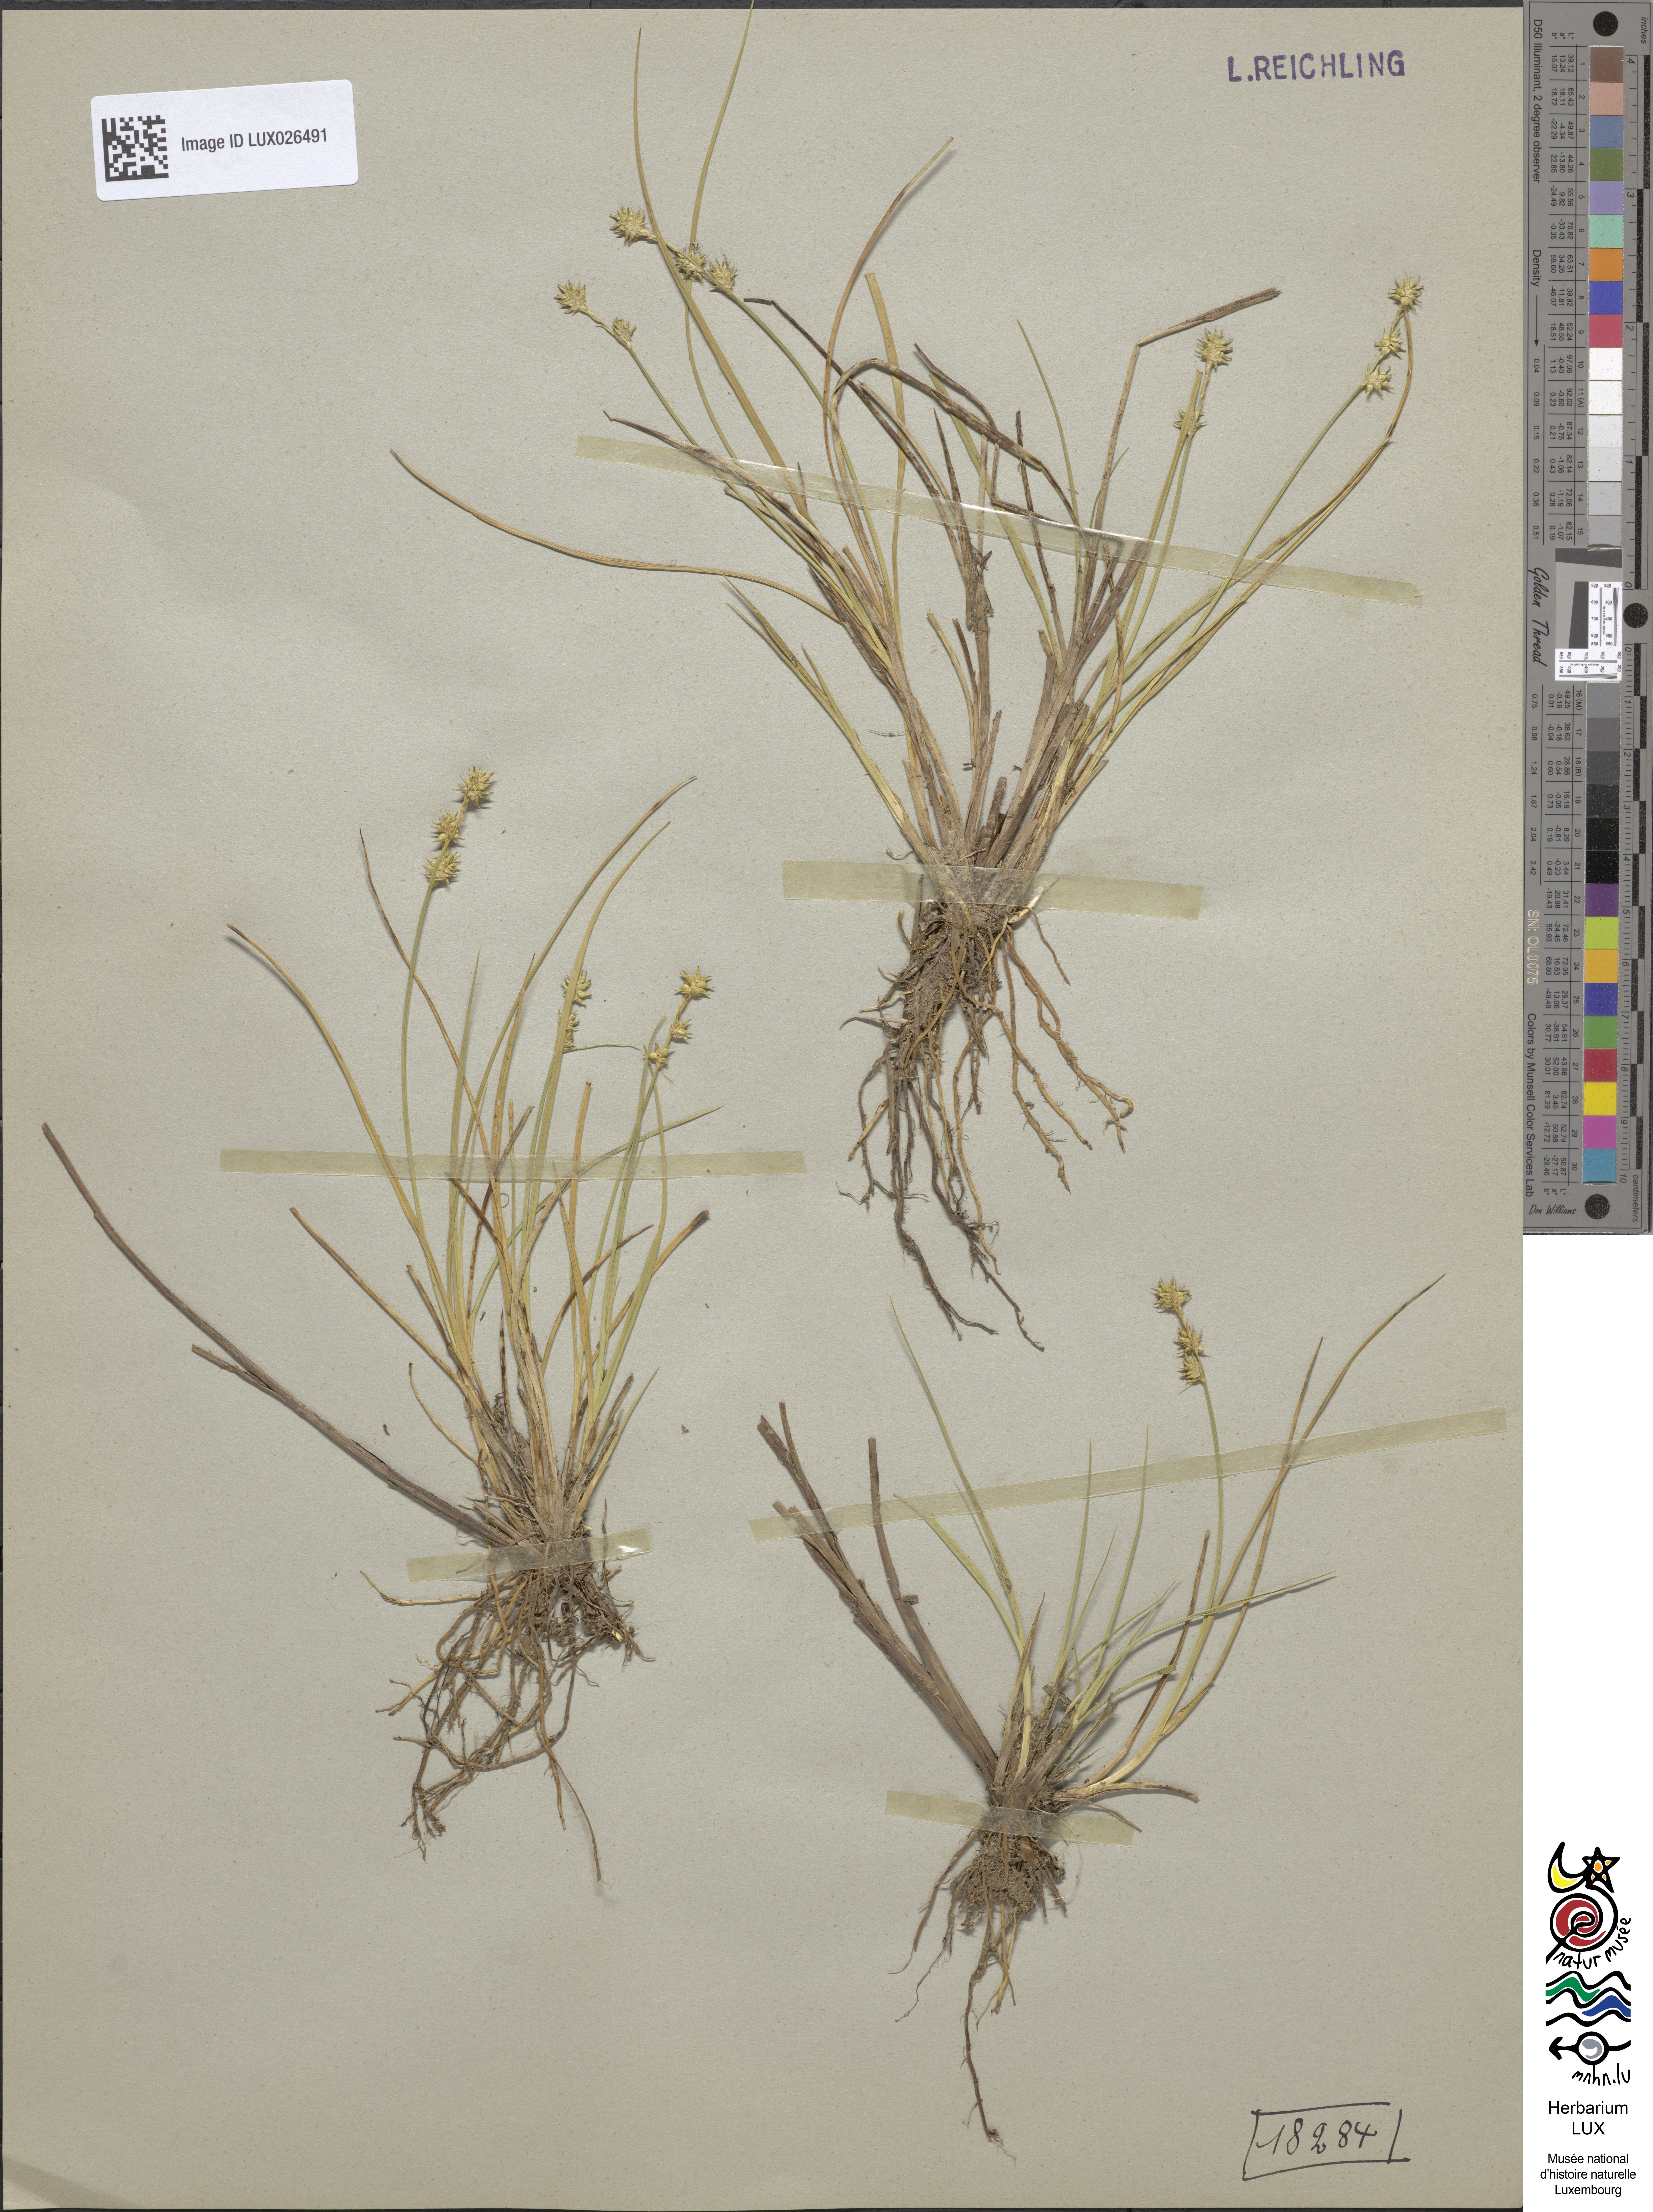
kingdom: Plantae
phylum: Tracheophyta
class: Liliopsida
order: Poales
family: Cyperaceae
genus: Carex
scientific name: Carex echinata
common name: Star sedge
